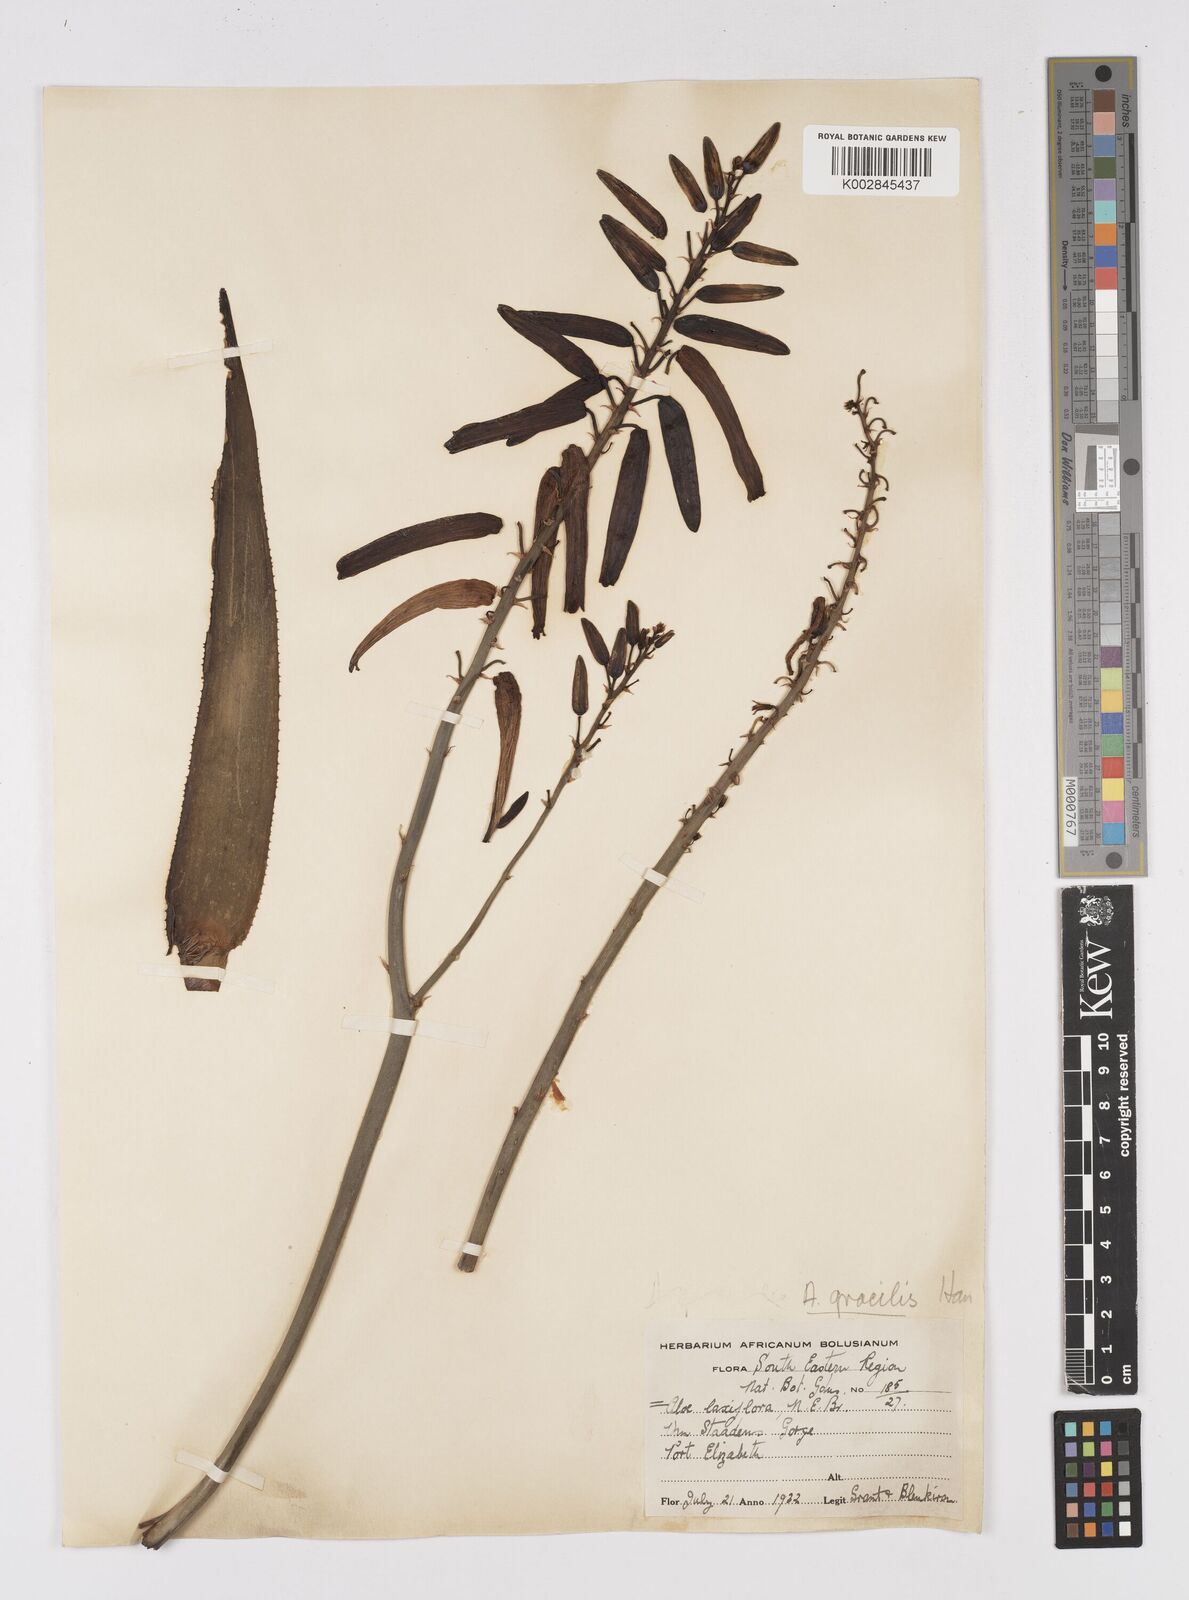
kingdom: Plantae
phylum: Tracheophyta
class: Liliopsida
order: Asparagales
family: Asphodelaceae
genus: Aloiampelos
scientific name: Aloiampelos gracilis
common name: Scrambling aloe
